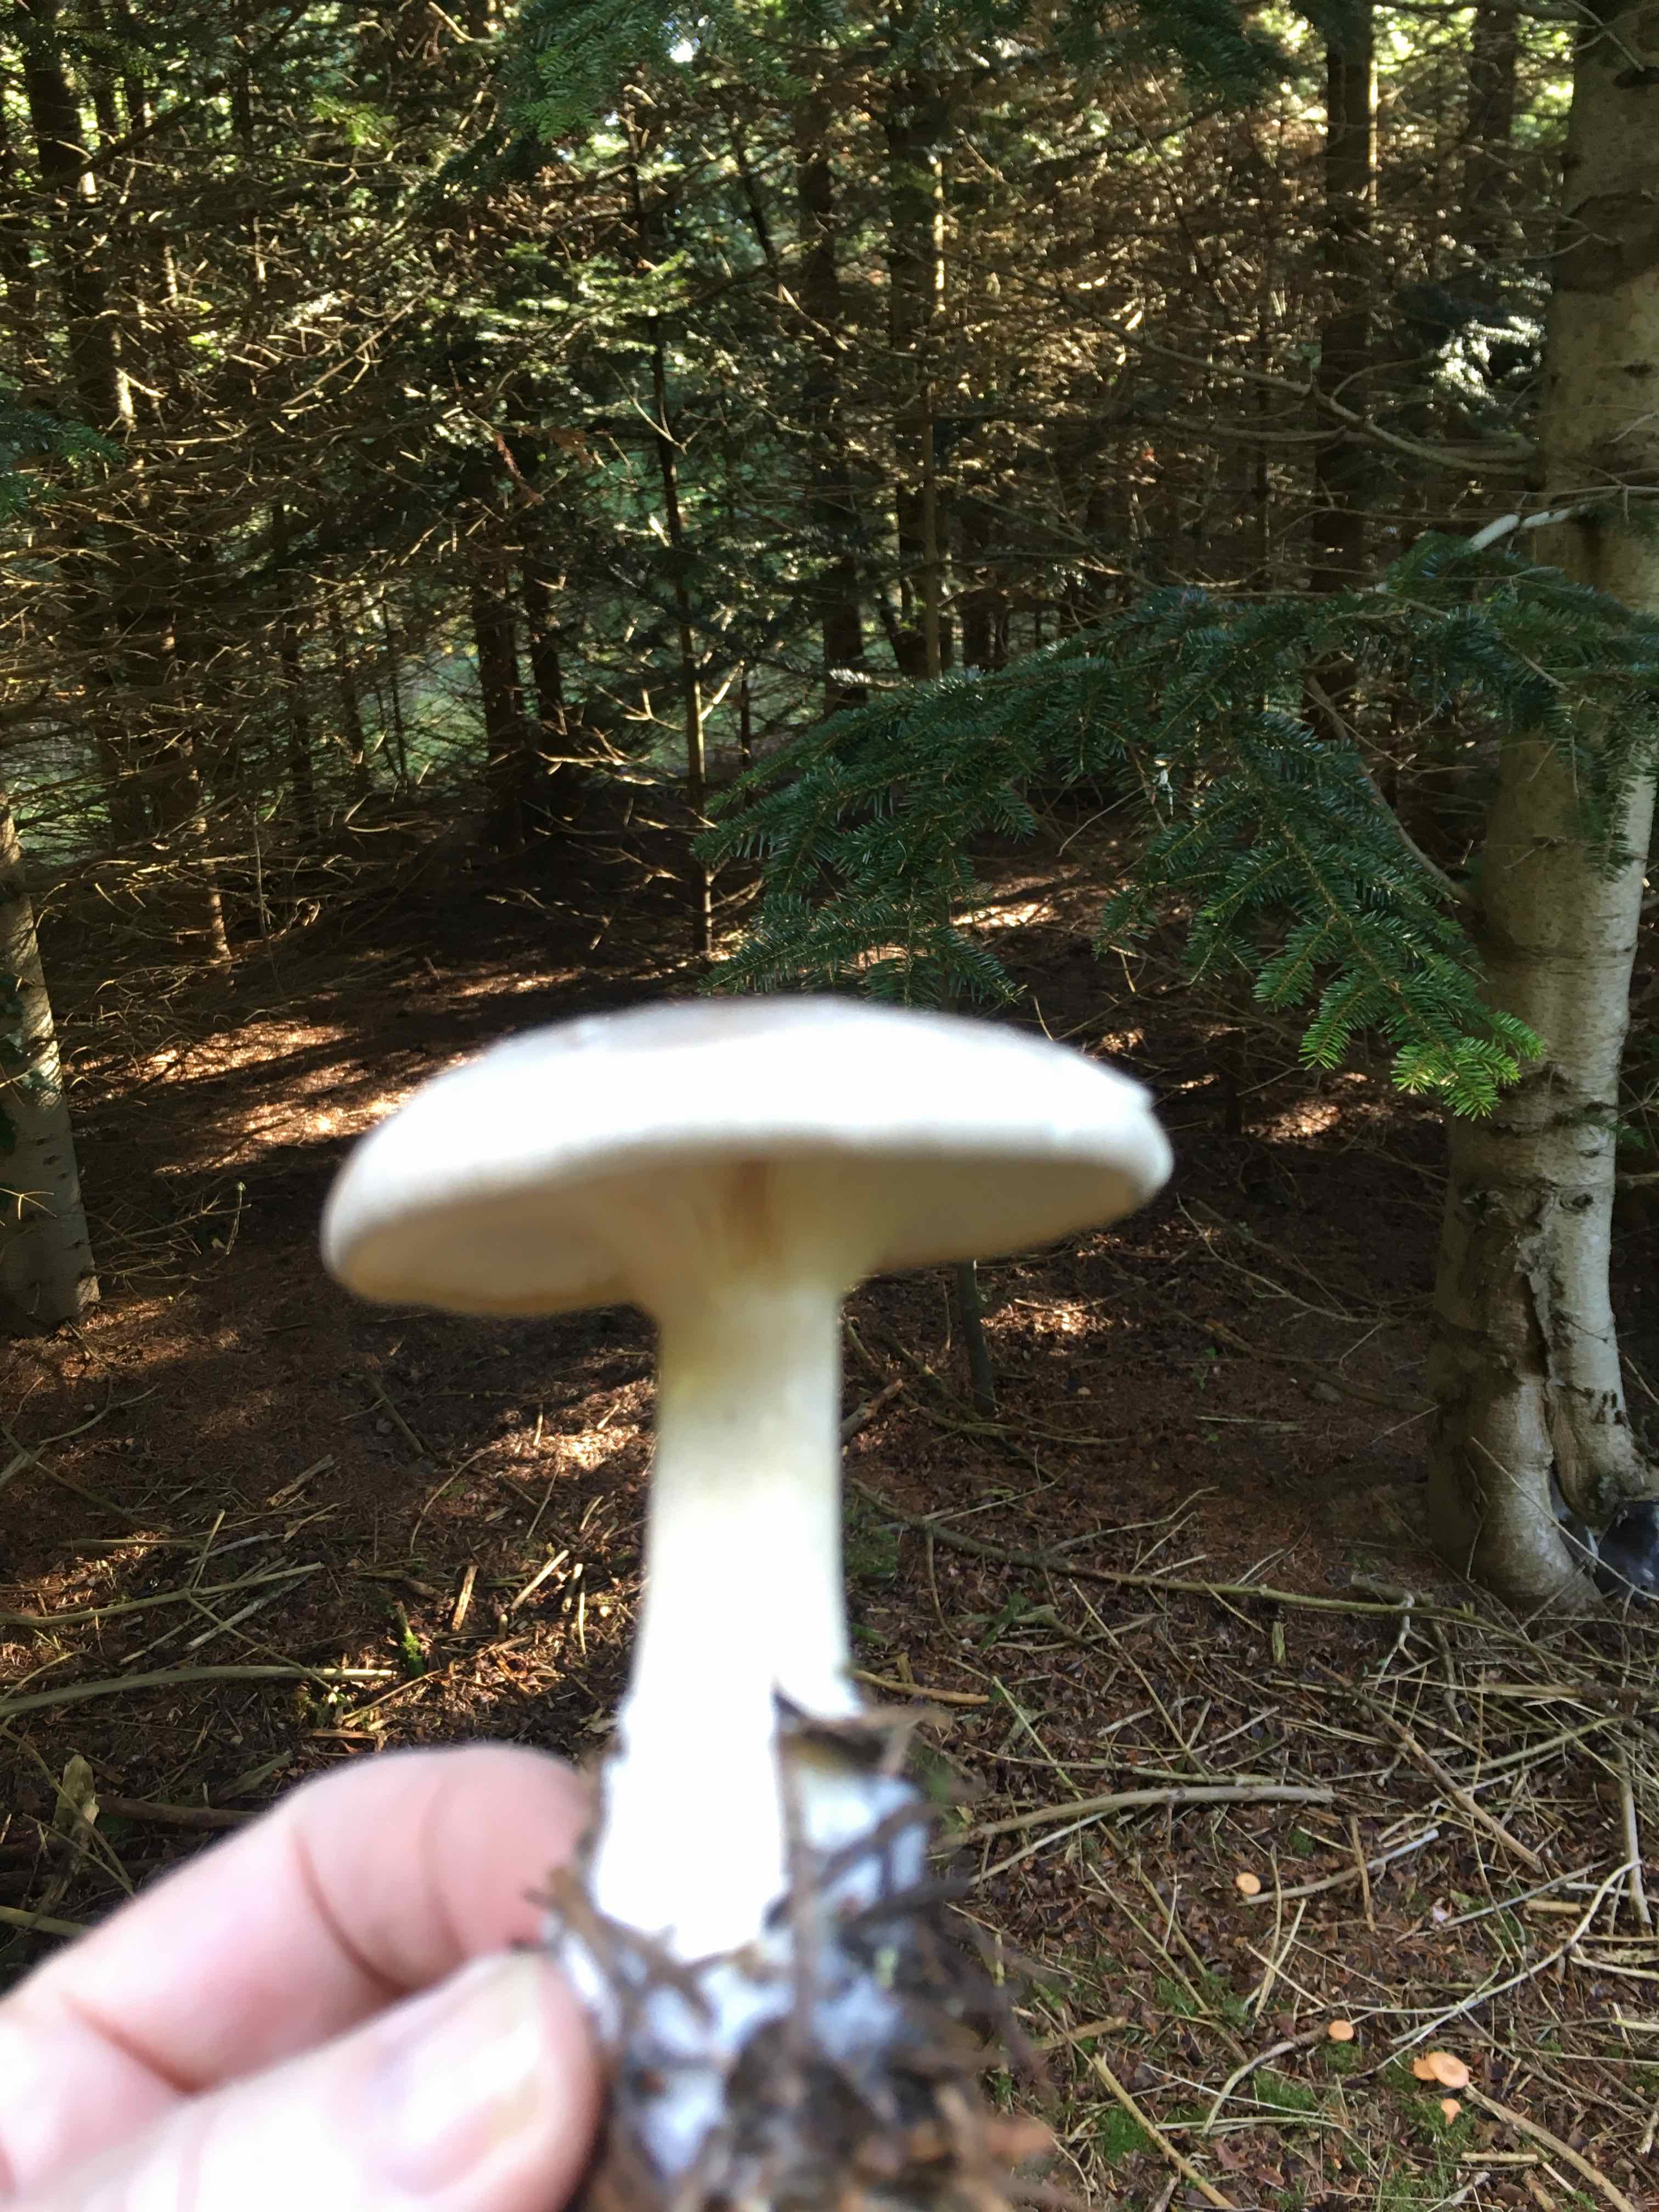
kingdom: Fungi
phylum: Basidiomycota
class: Agaricomycetes
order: Agaricales
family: Tricholomataceae
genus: Clitocybe
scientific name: Clitocybe nebularis
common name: tåge-tragthat
